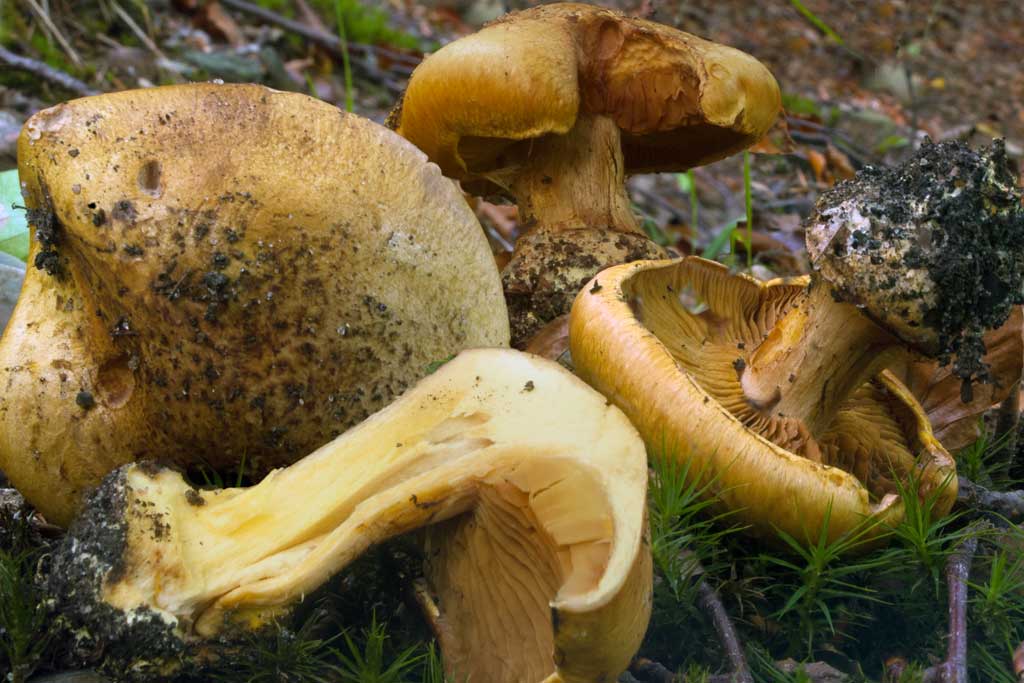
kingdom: Fungi
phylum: Basidiomycota
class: Agaricomycetes
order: Agaricales
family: Cortinariaceae
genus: Calonarius
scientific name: Calonarius alcalinophilus
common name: gyldenbrun slørhat
